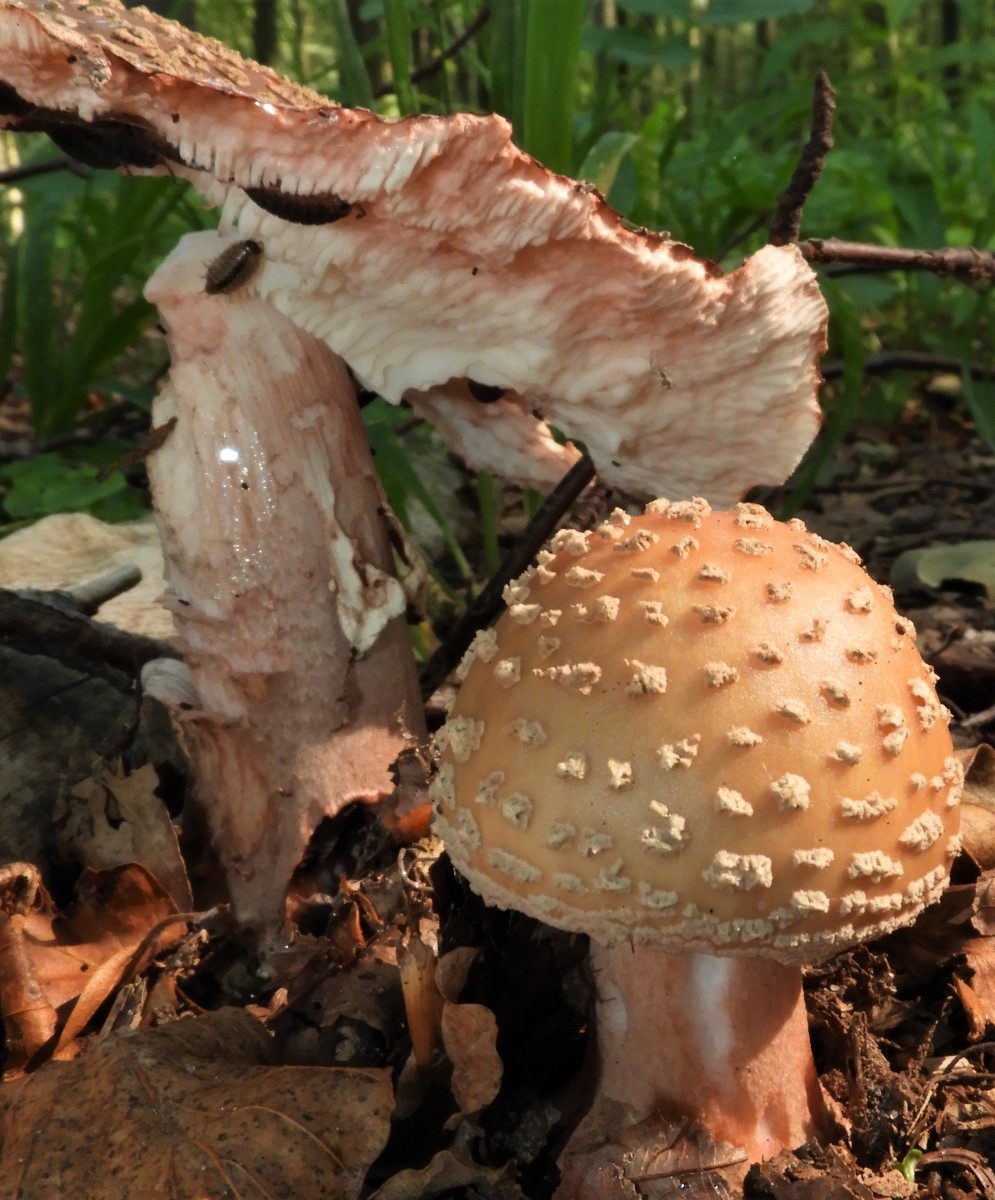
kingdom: Fungi
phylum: Basidiomycota
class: Agaricomycetes
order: Agaricales
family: Amanitaceae
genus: Amanita
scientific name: Amanita rubescens
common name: rødmende fluesvamp
